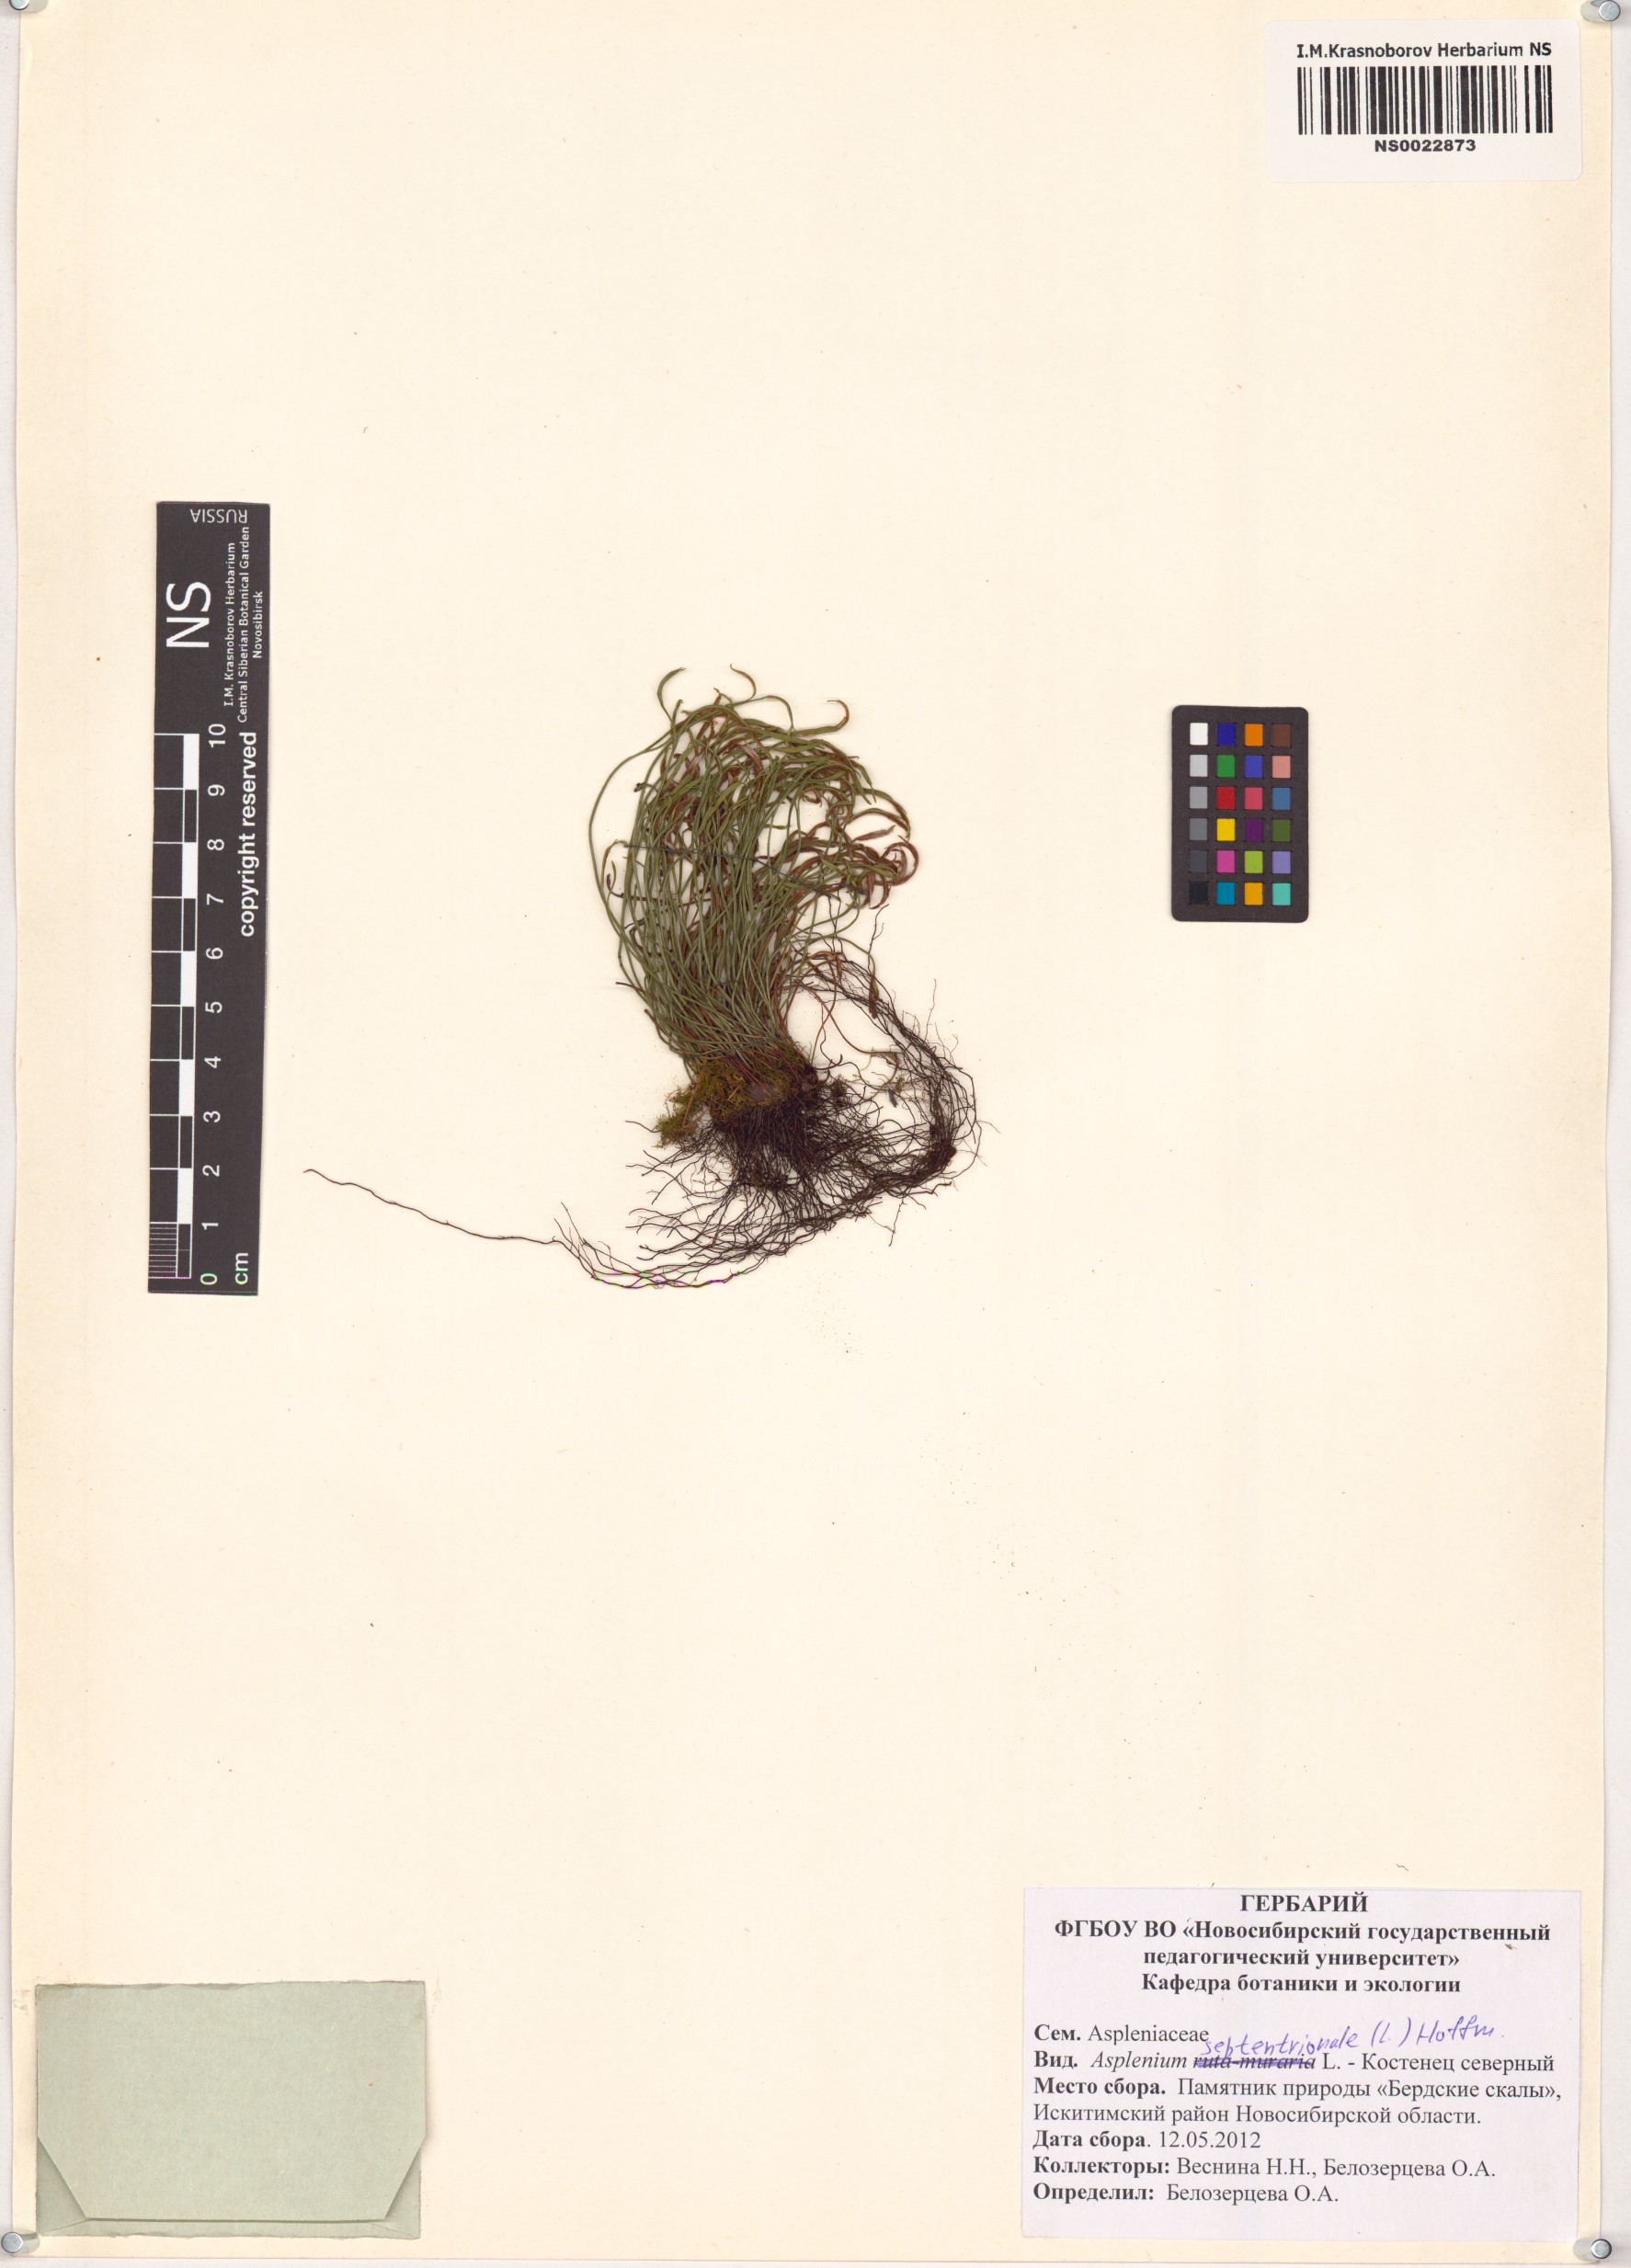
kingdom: Plantae
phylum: Tracheophyta
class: Polypodiopsida
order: Polypodiales
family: Aspleniaceae
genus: Asplenium
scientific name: Asplenium septentrionale
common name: Forked spleenwort
